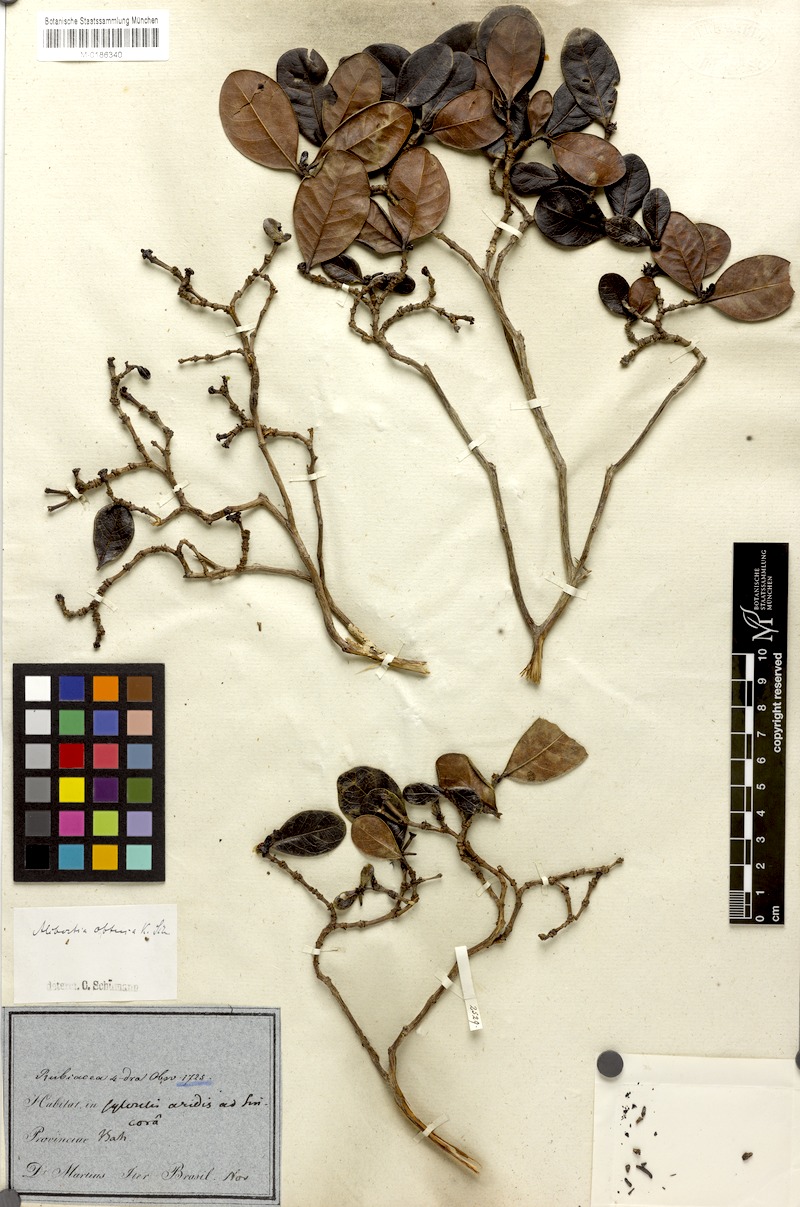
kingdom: Plantae
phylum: Tracheophyta
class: Magnoliopsida
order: Gentianales
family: Rubiaceae
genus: Cordiera
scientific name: Cordiera obtusa
